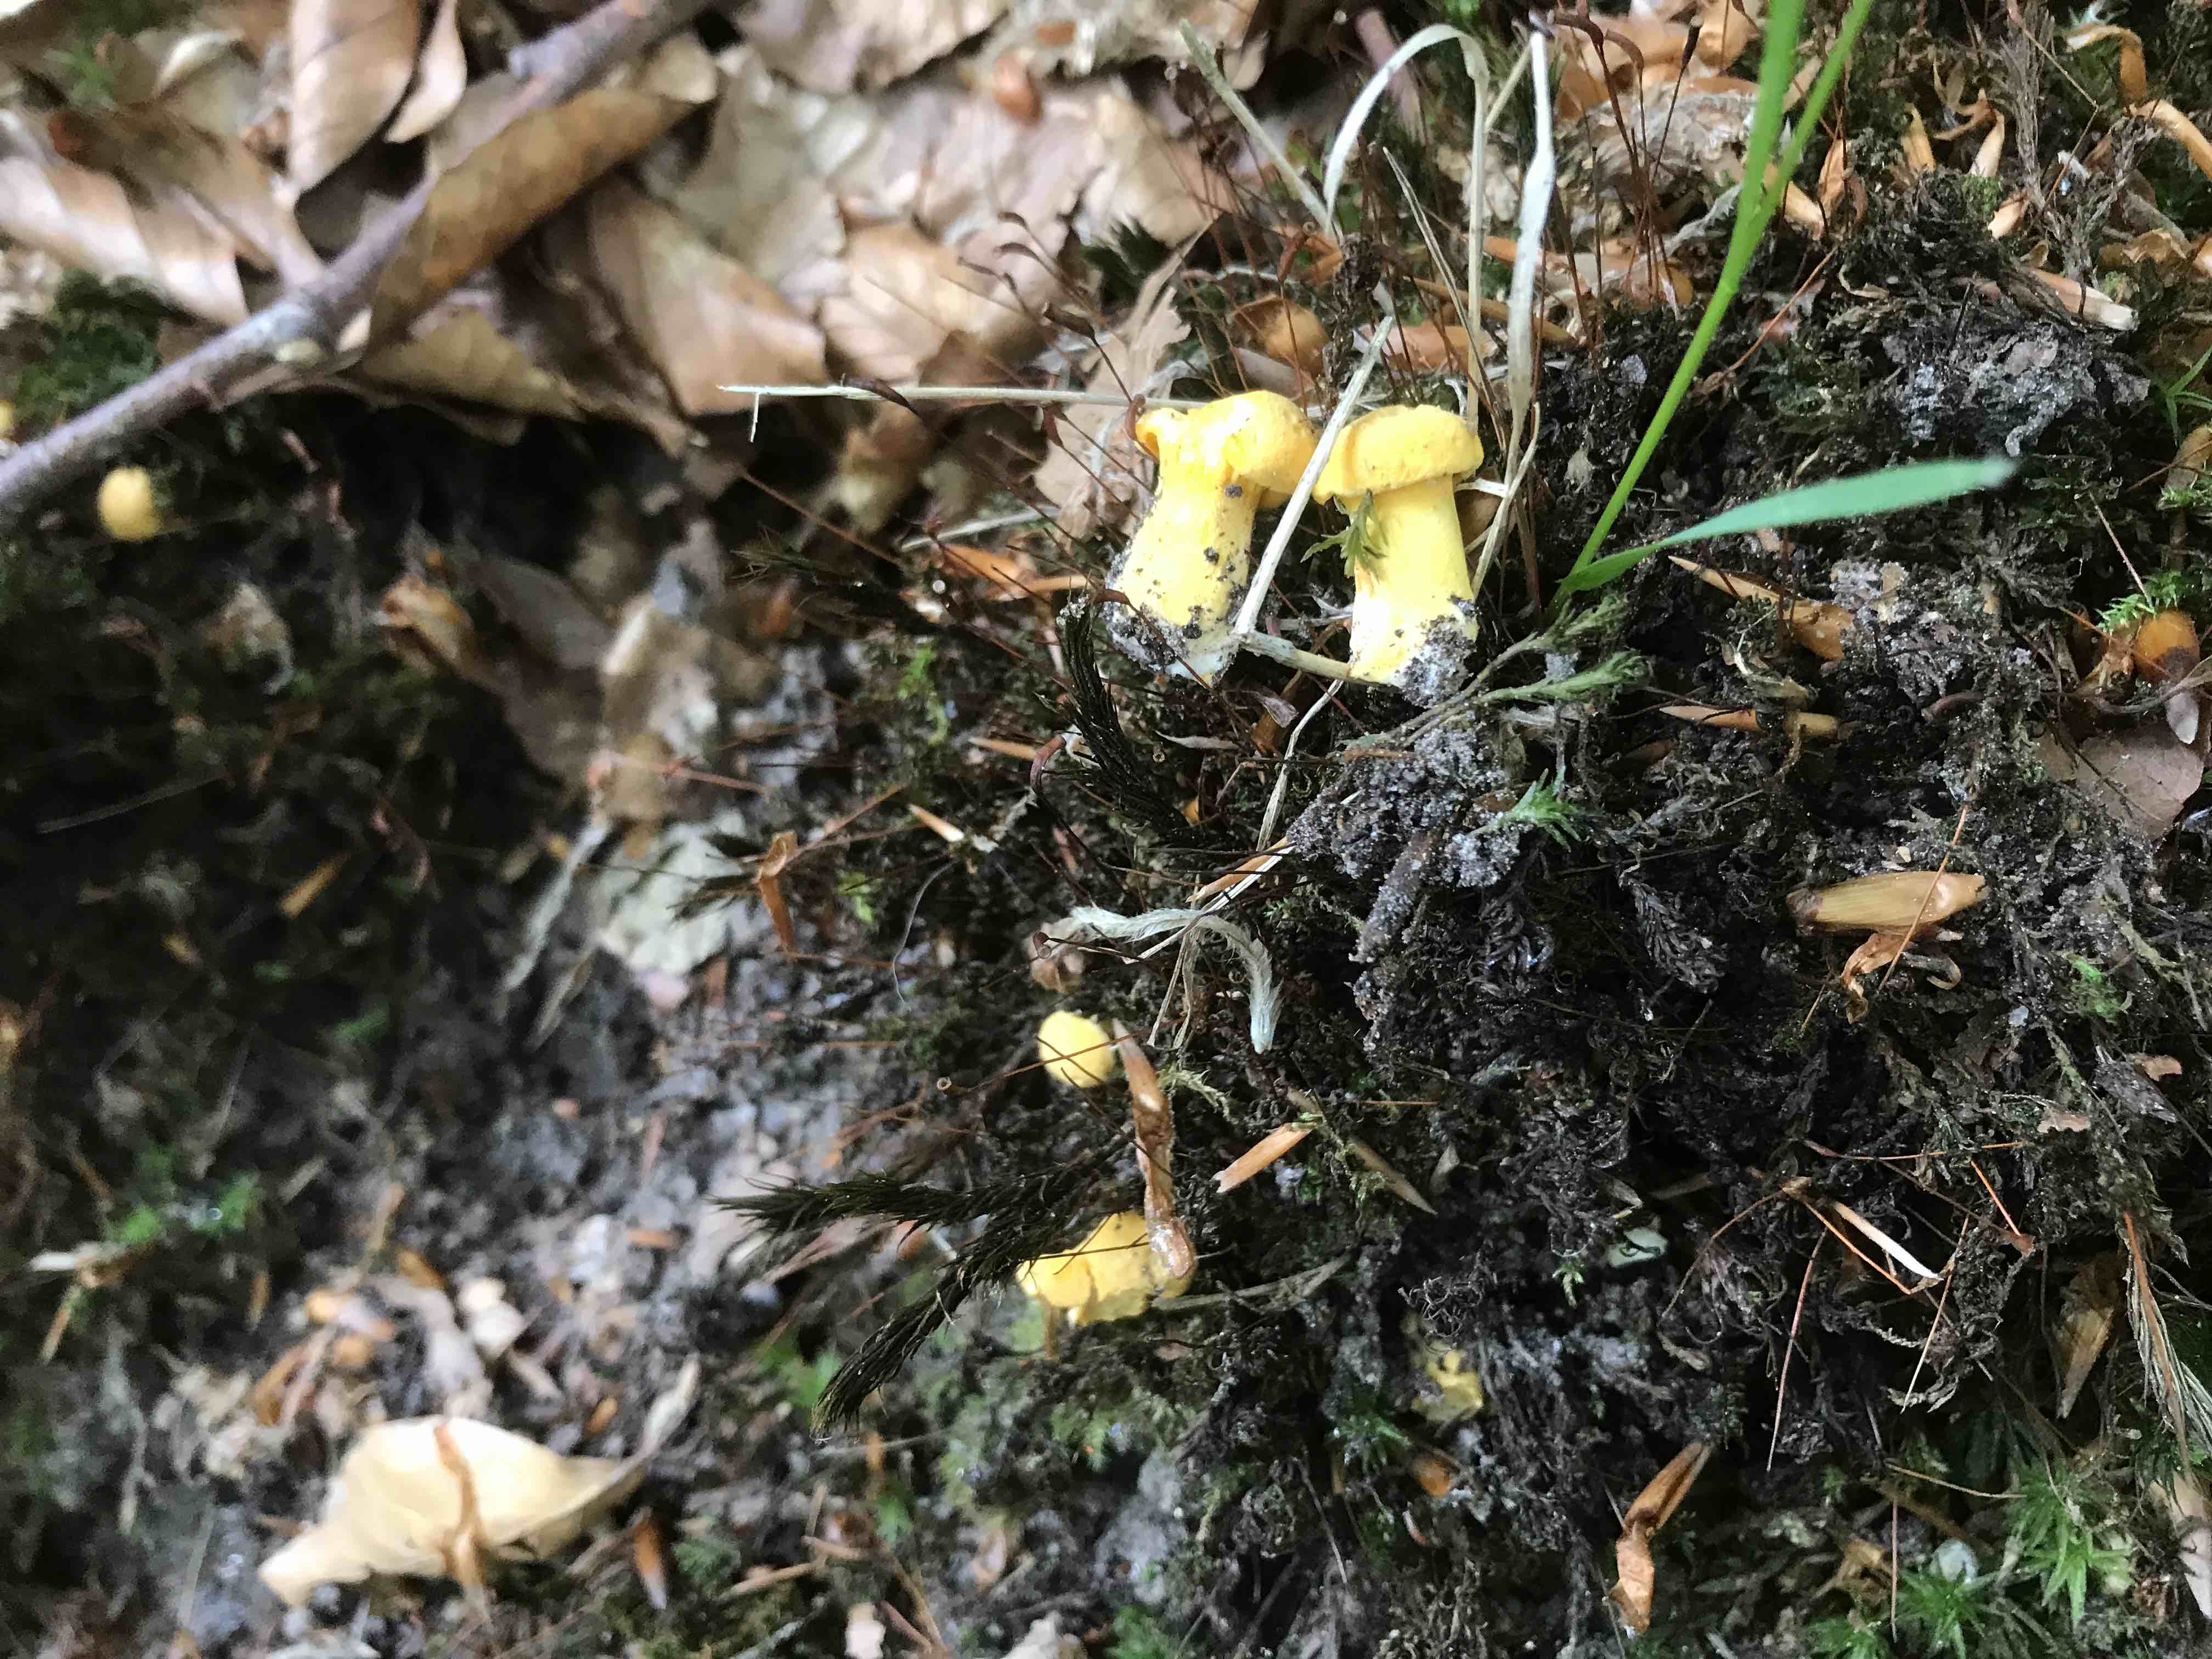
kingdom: Fungi
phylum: Basidiomycota
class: Agaricomycetes
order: Cantharellales
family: Hydnaceae
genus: Cantharellus
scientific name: Cantharellus pallens
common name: bleg kantarel
